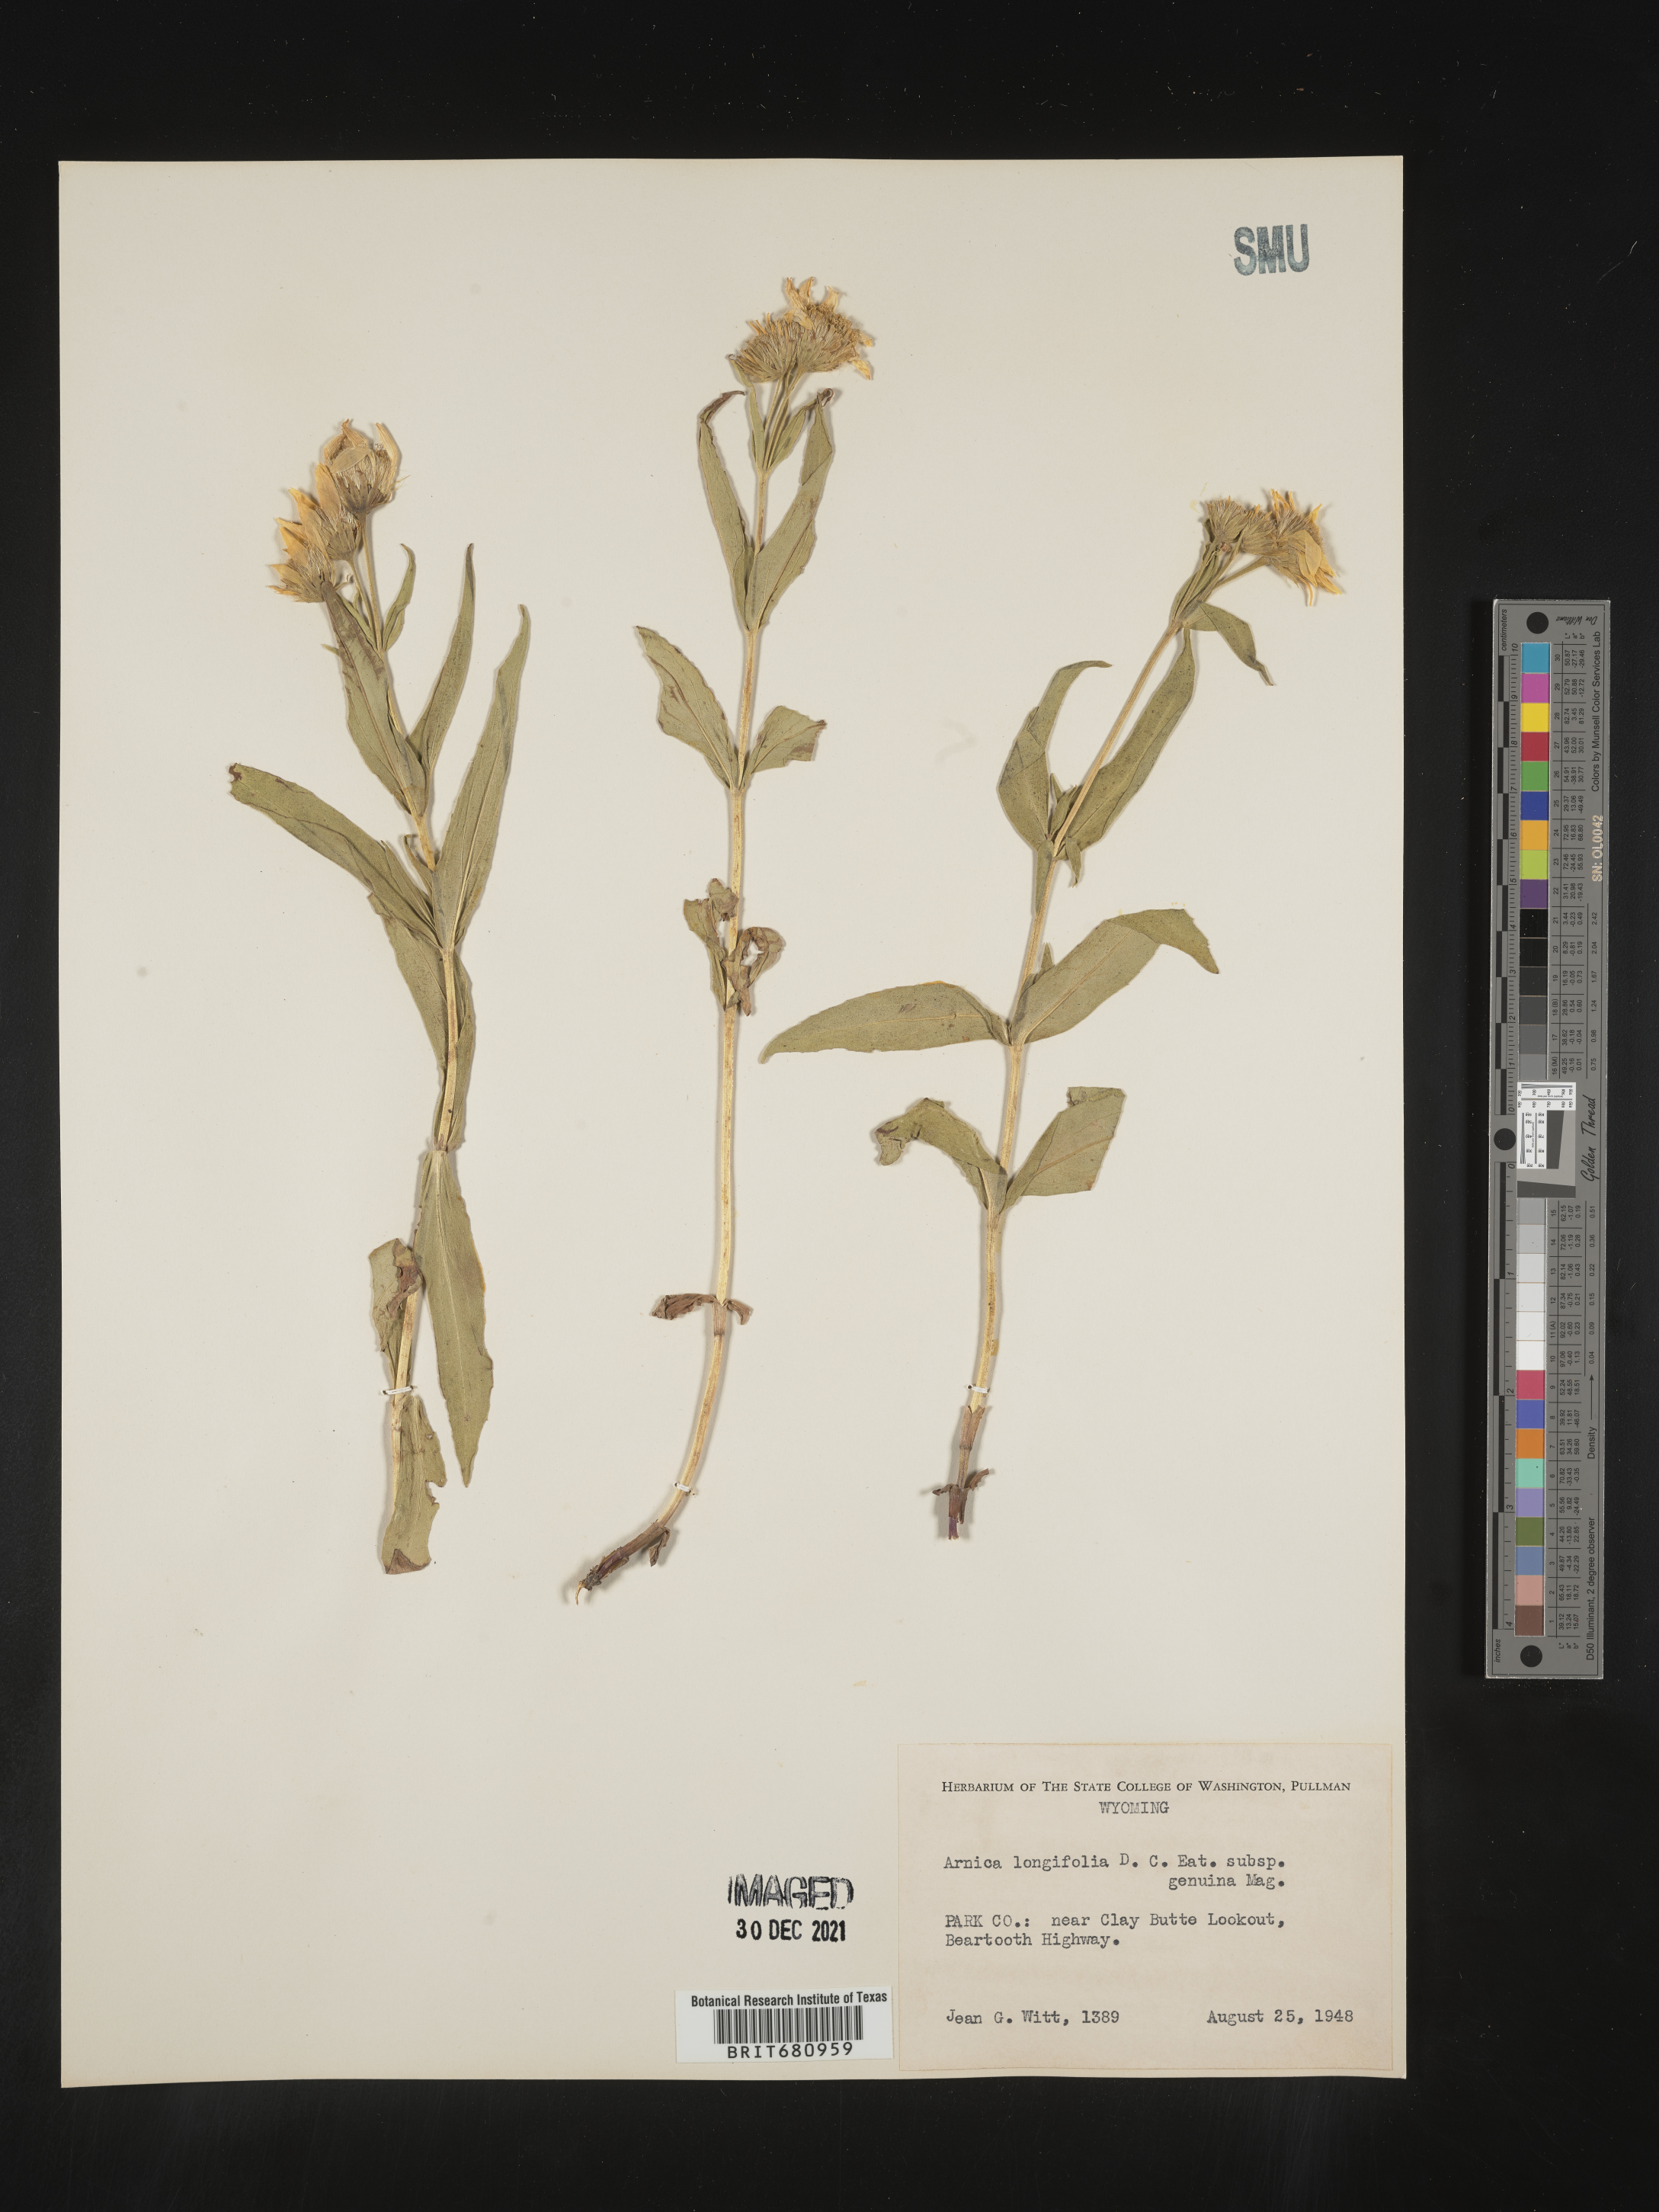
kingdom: Plantae
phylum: Tracheophyta
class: Magnoliopsida
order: Asterales
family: Asteraceae
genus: Arnica
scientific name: Arnica longifolia
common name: Spear-leaf arnica
